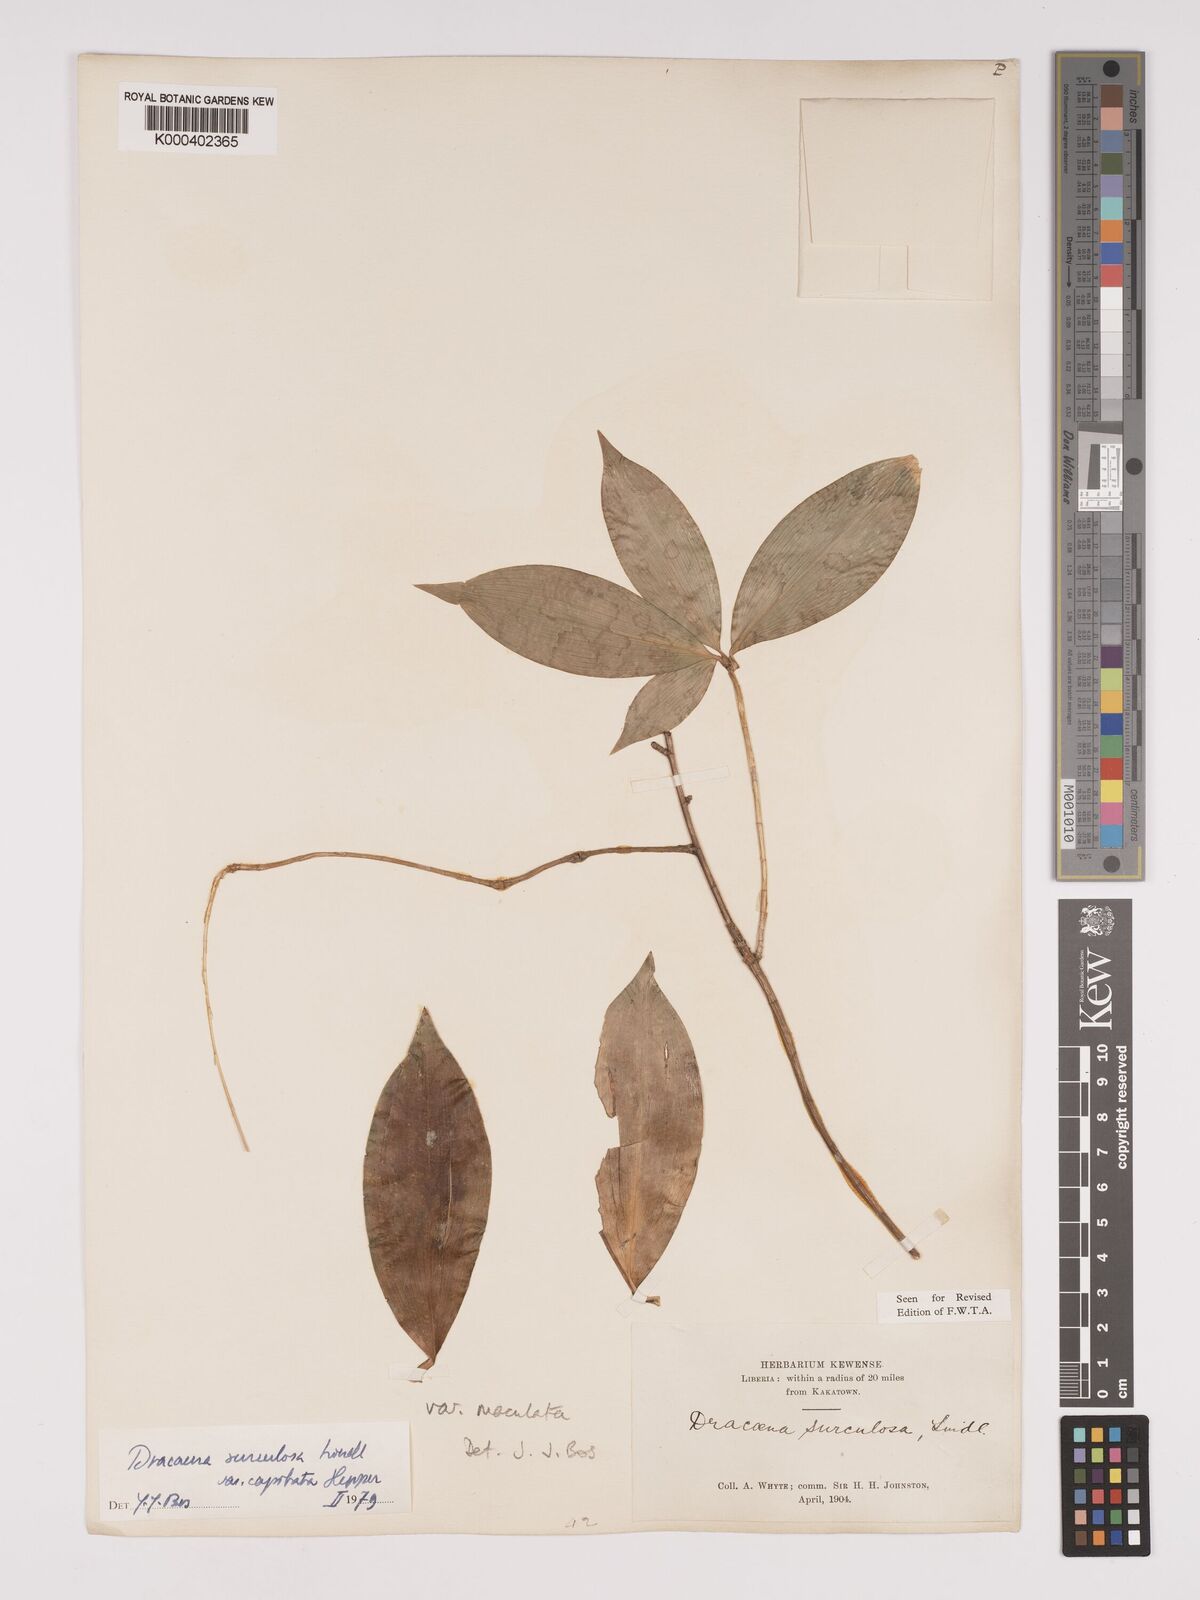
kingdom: Plantae
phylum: Tracheophyta
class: Liliopsida
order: Asparagales
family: Asparagaceae
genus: Dracaena
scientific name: Dracaena surculosa
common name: Spotted dracaena
